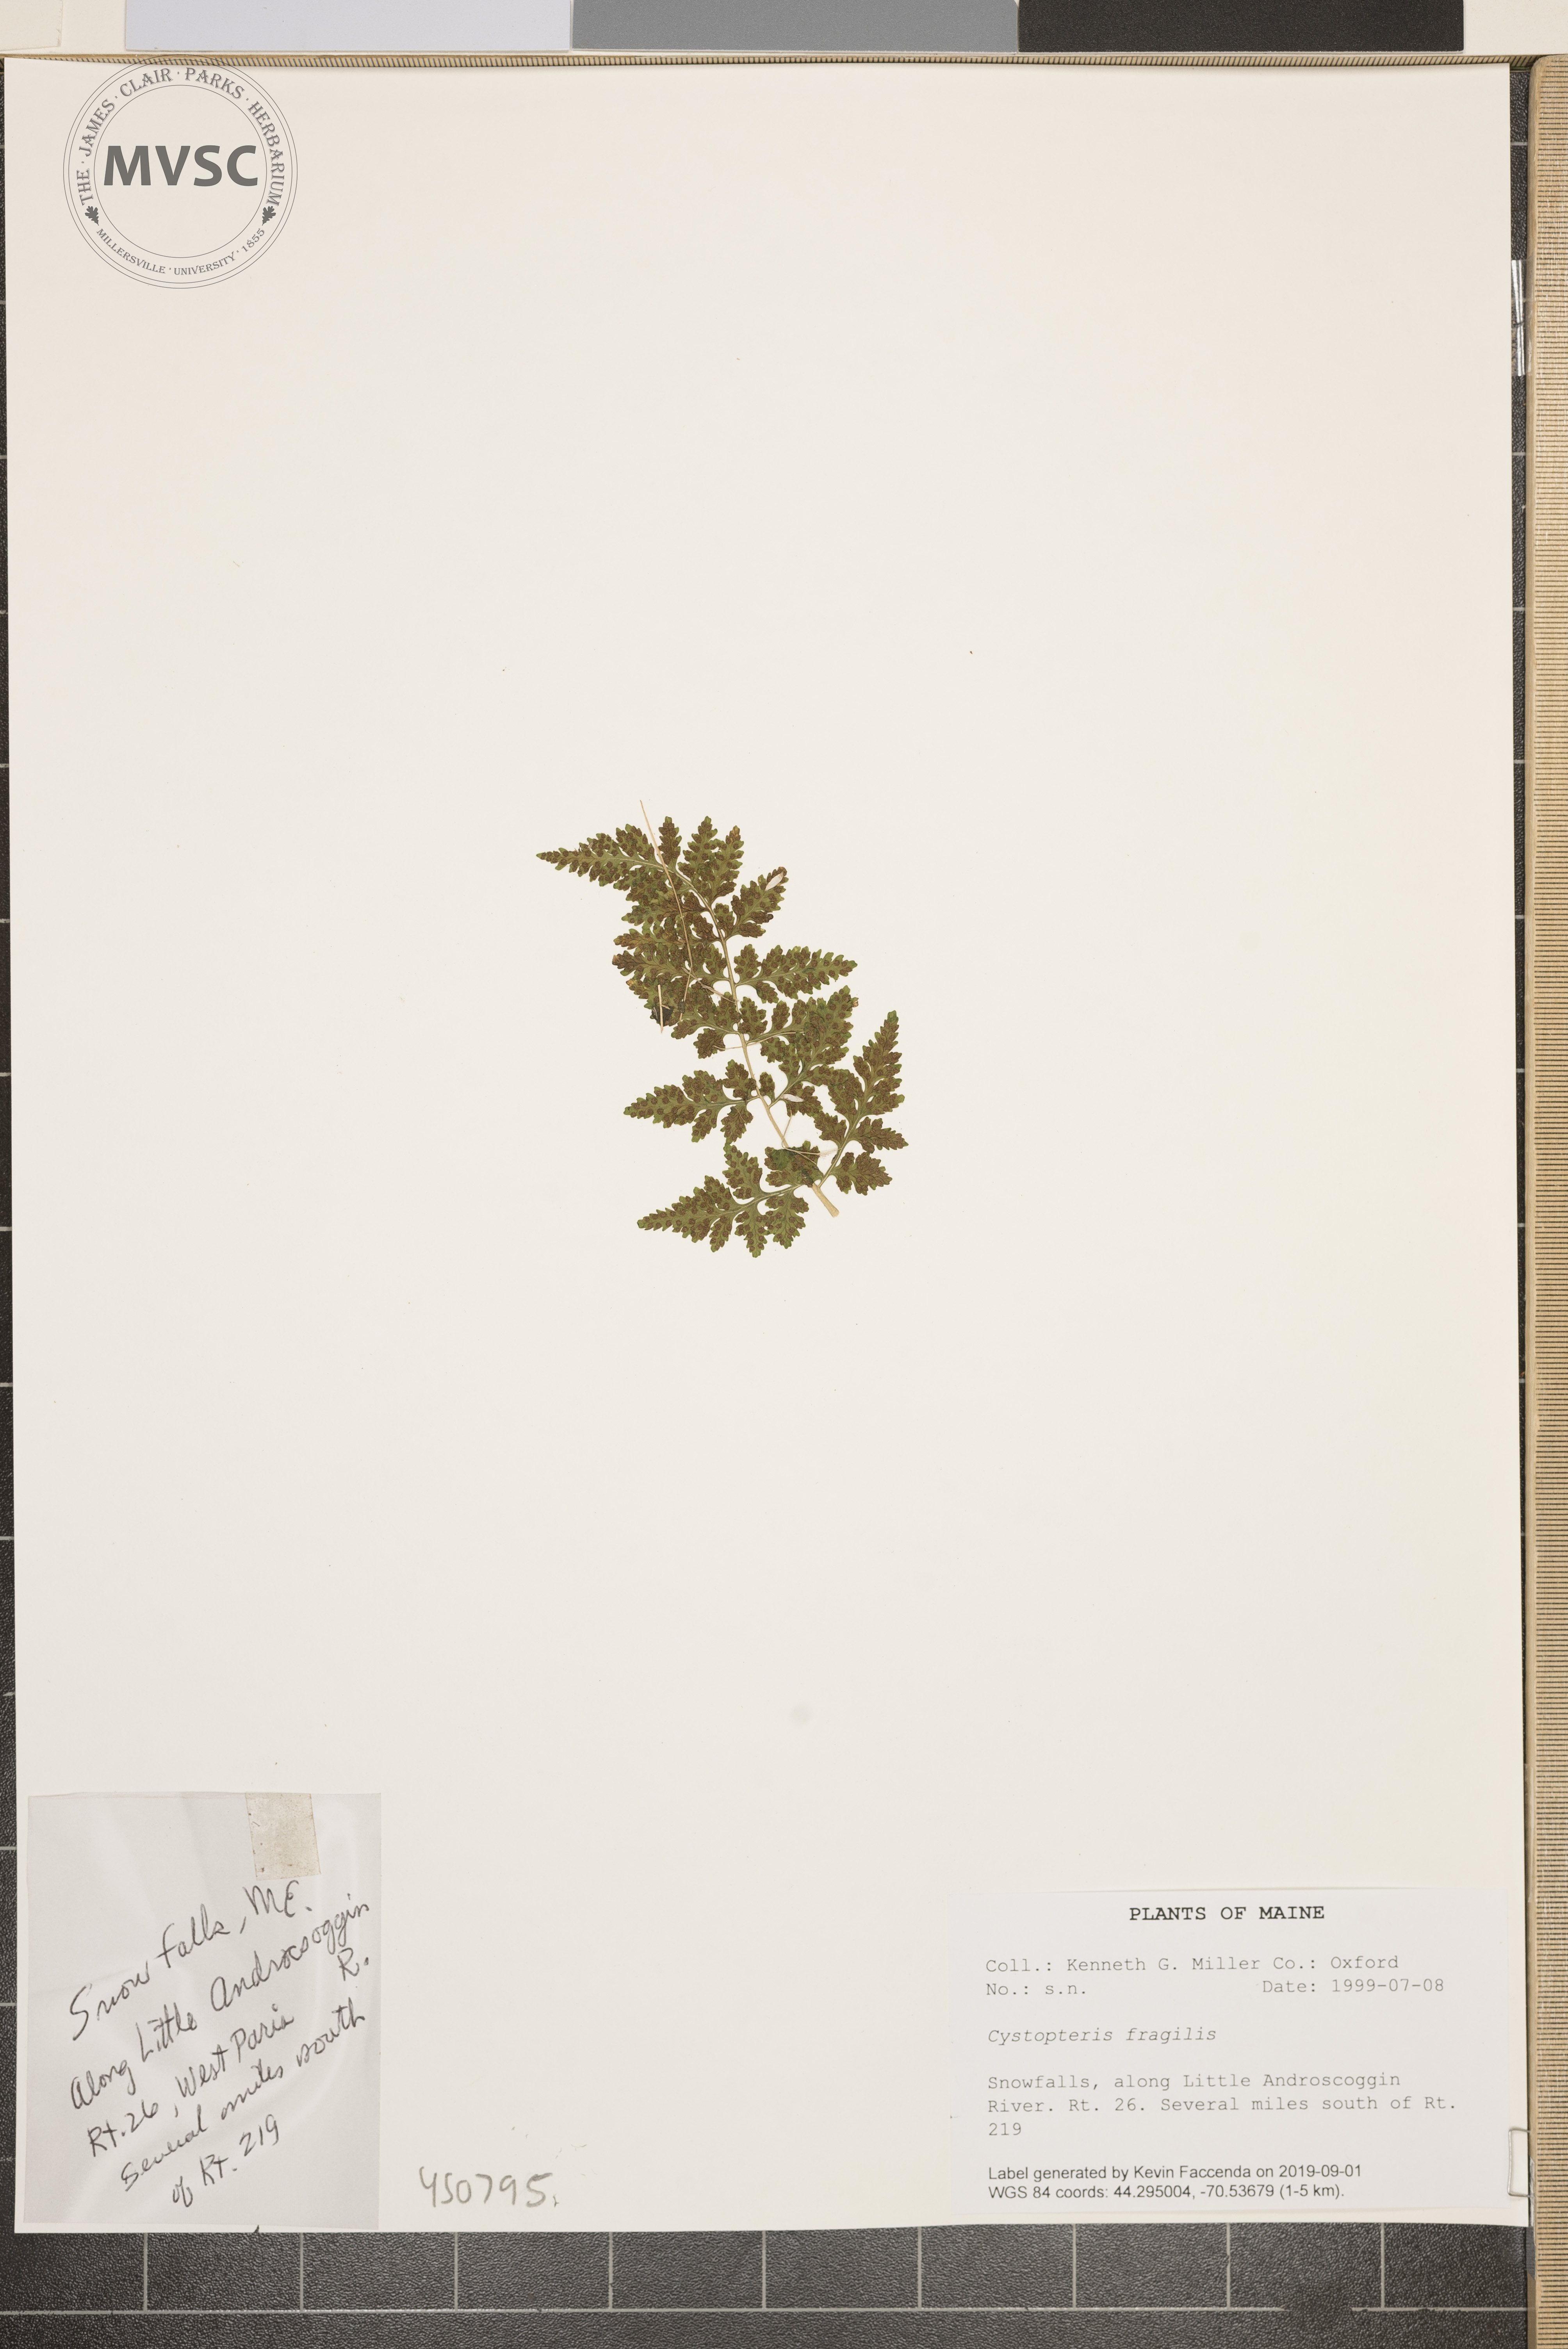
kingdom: Plantae
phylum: Tracheophyta
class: Polypodiopsida
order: Polypodiales
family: Cystopteridaceae
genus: Cystopteris
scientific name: Cystopteris fragilis
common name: Brittle bladder fern
